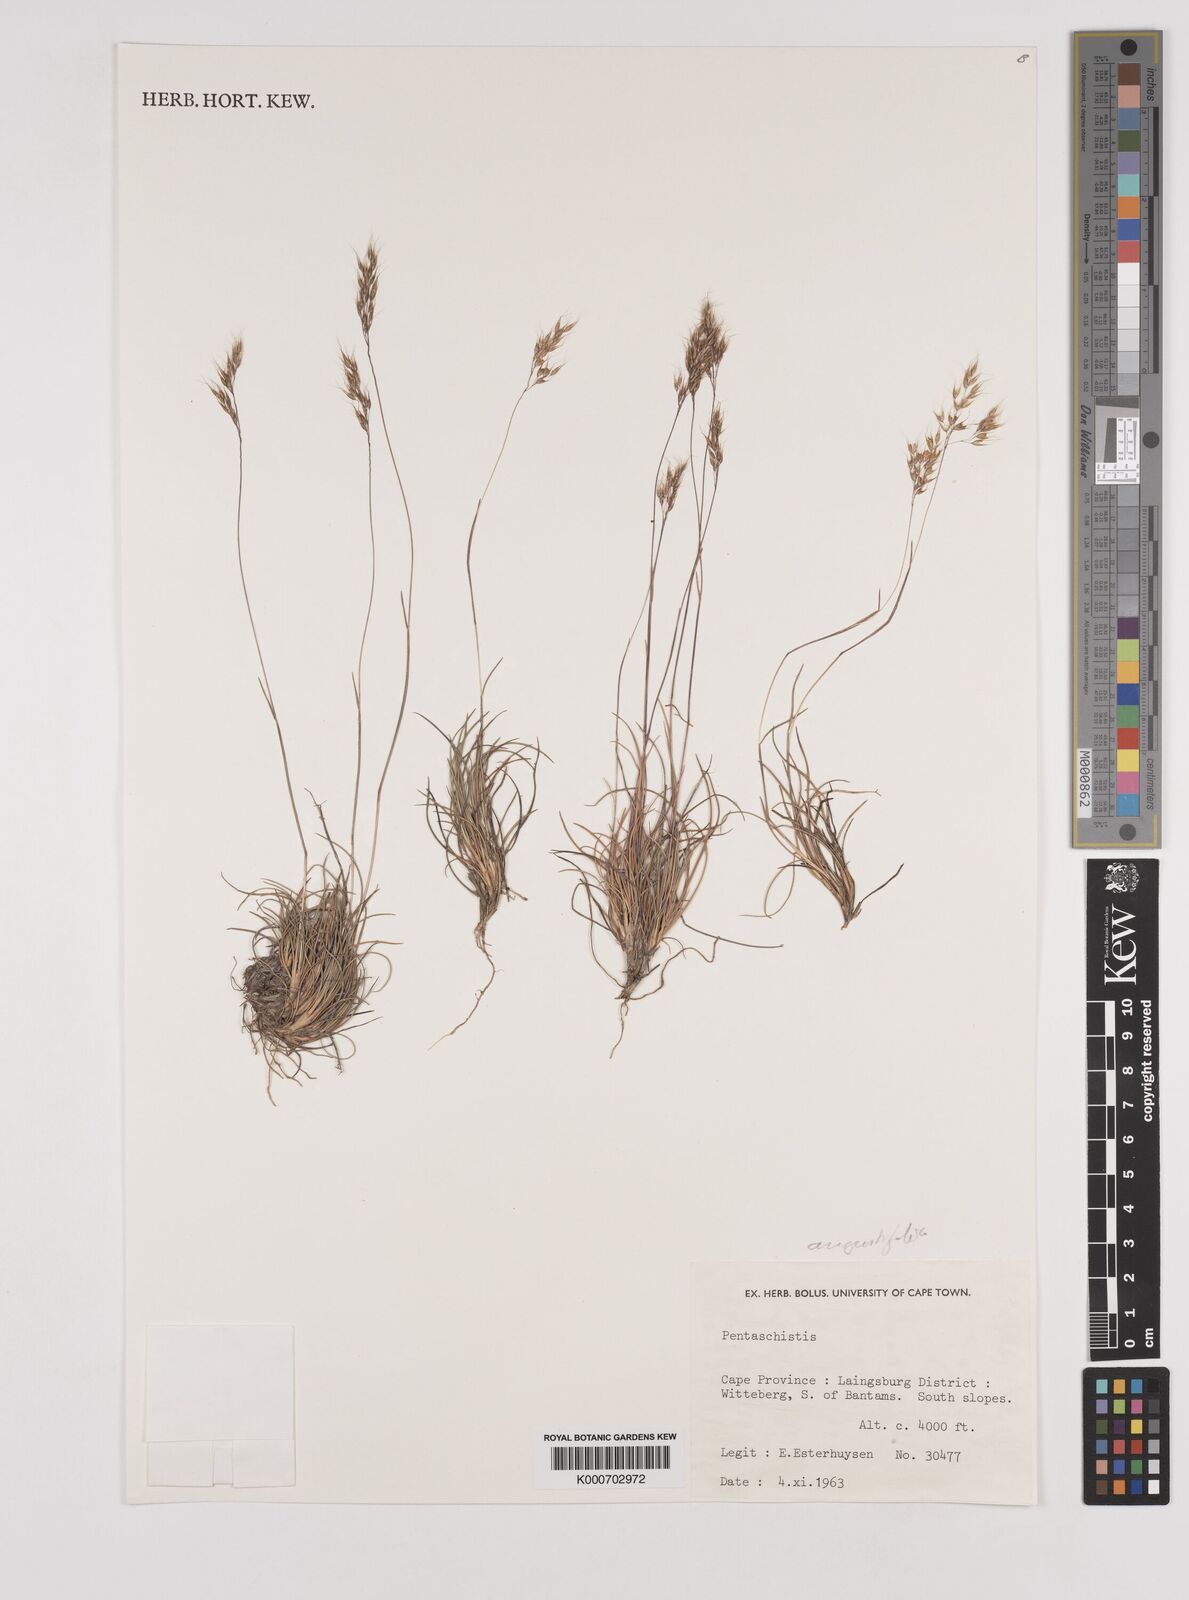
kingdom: Plantae
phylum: Tracheophyta
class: Liliopsida
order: Poales
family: Poaceae
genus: Pentameris
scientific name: Pentameris pallida
